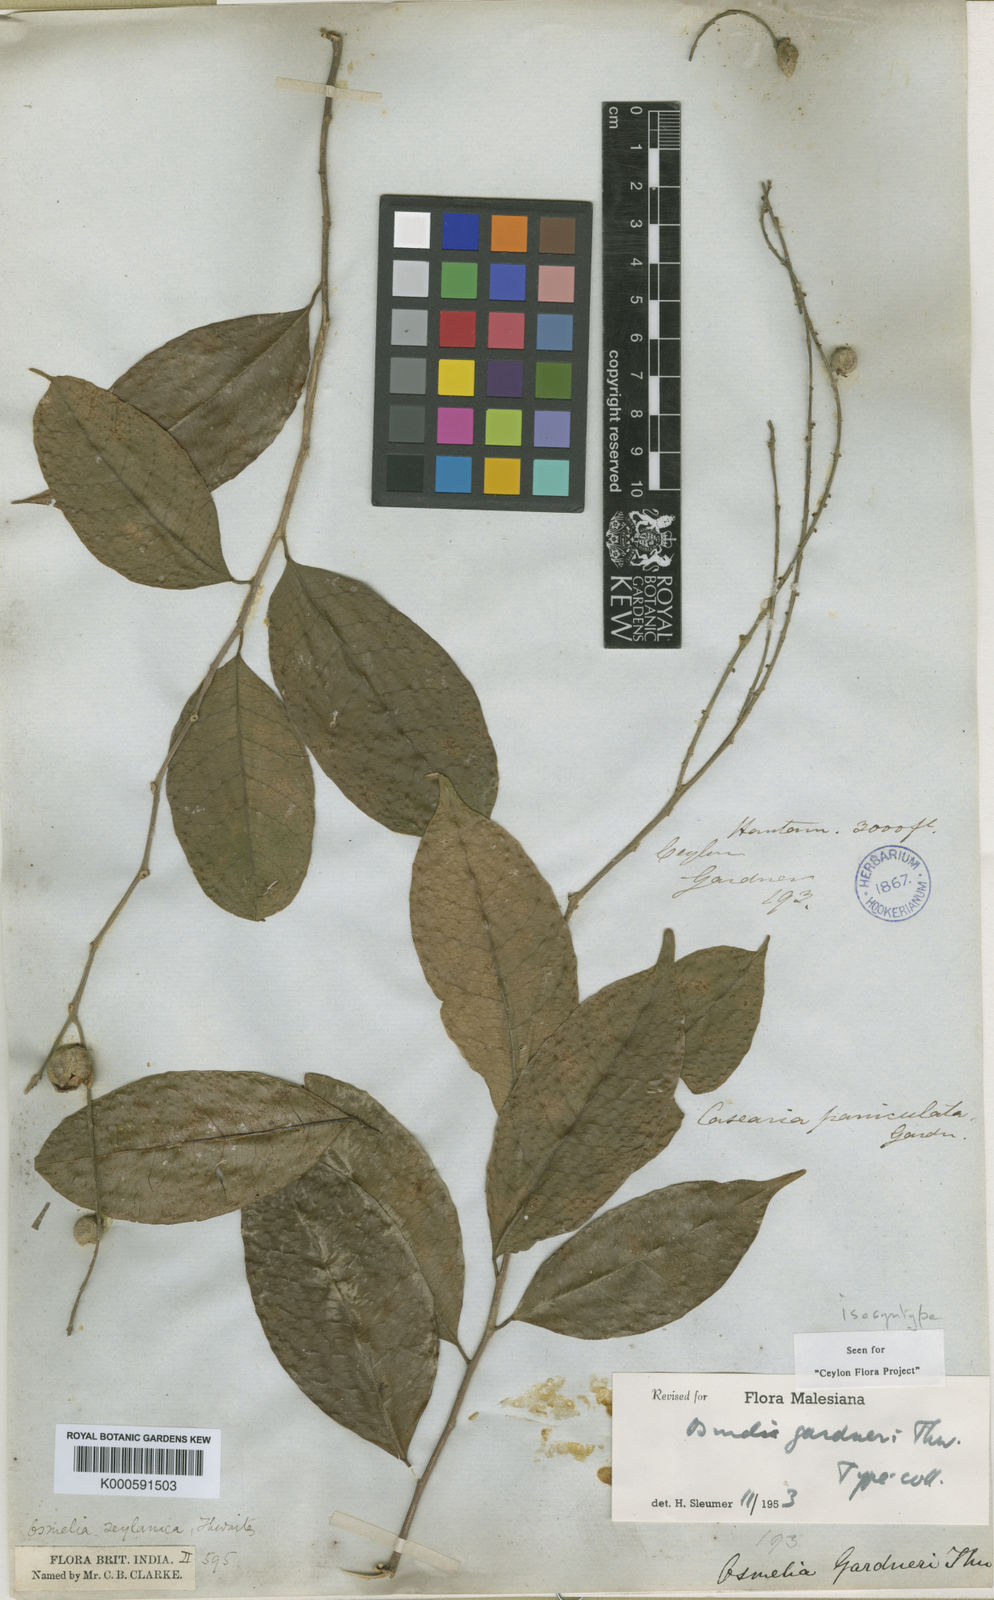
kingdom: Plantae
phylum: Tracheophyta
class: Magnoliopsida
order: Malpighiales
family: Salicaceae
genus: Osmelia
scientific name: Osmelia gardneri
